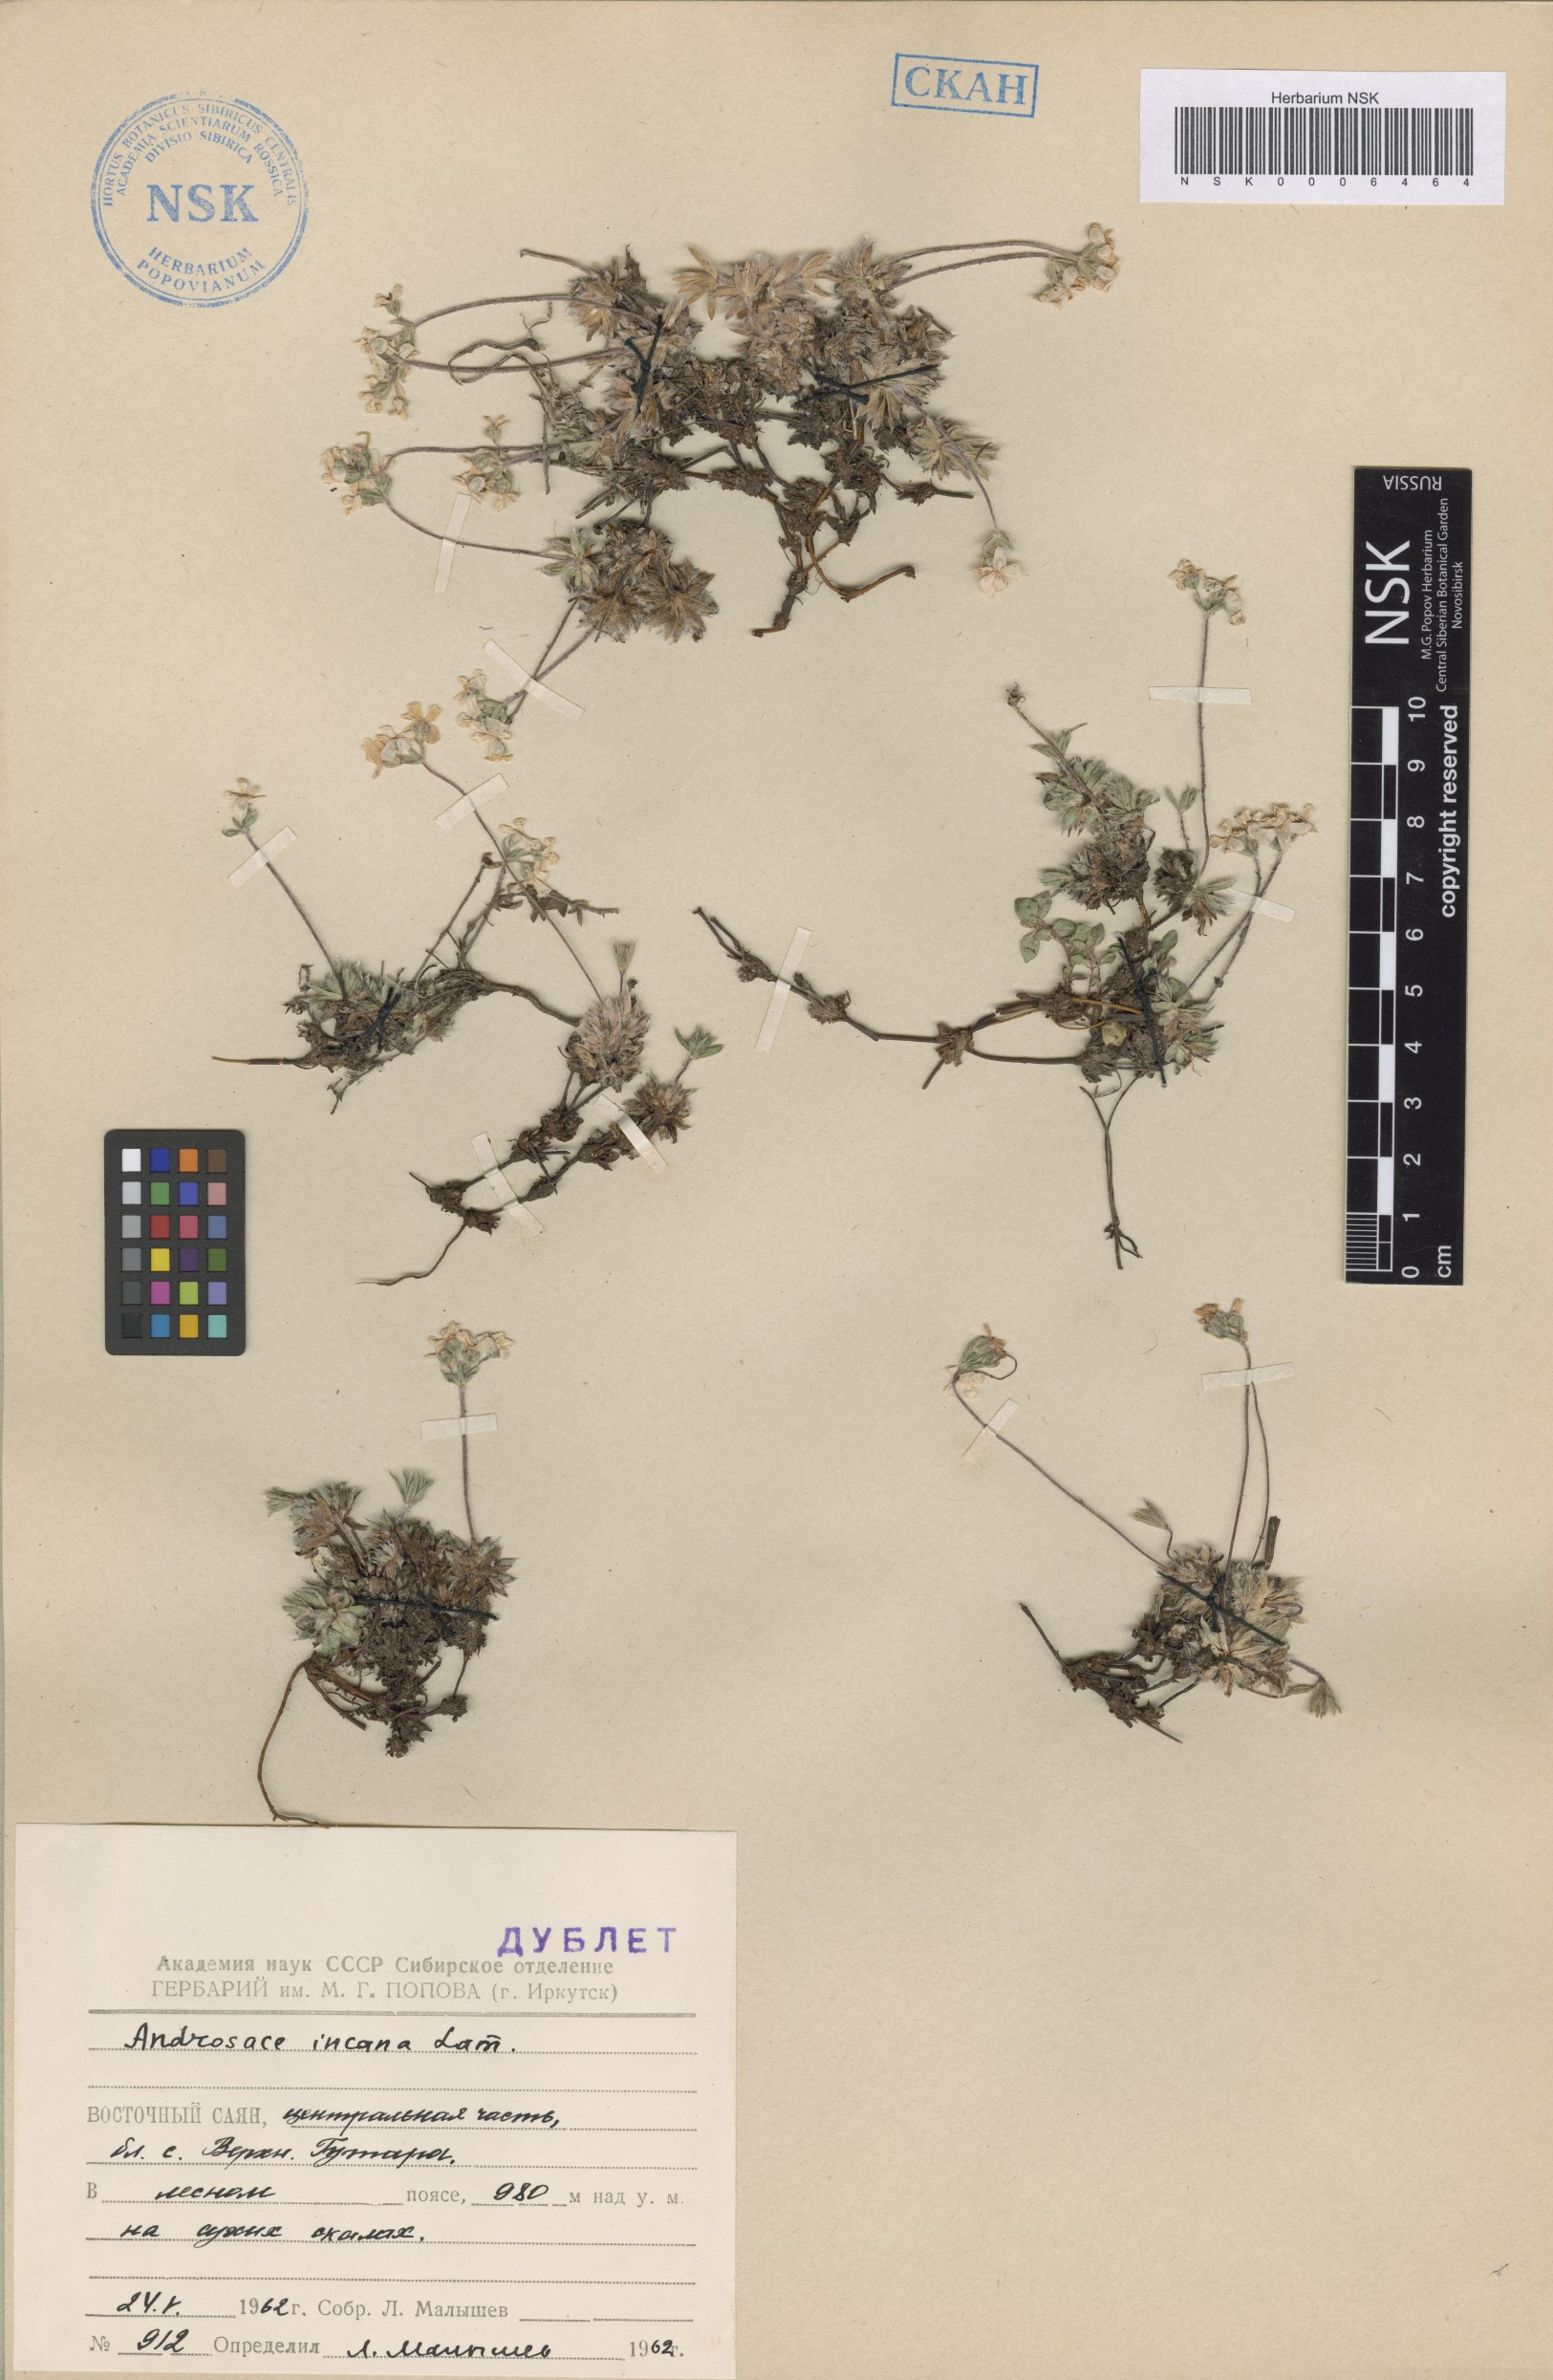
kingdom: Plantae
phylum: Tracheophyta
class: Magnoliopsida
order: Ericales
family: Primulaceae
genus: Androsace
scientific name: Androsace incana
